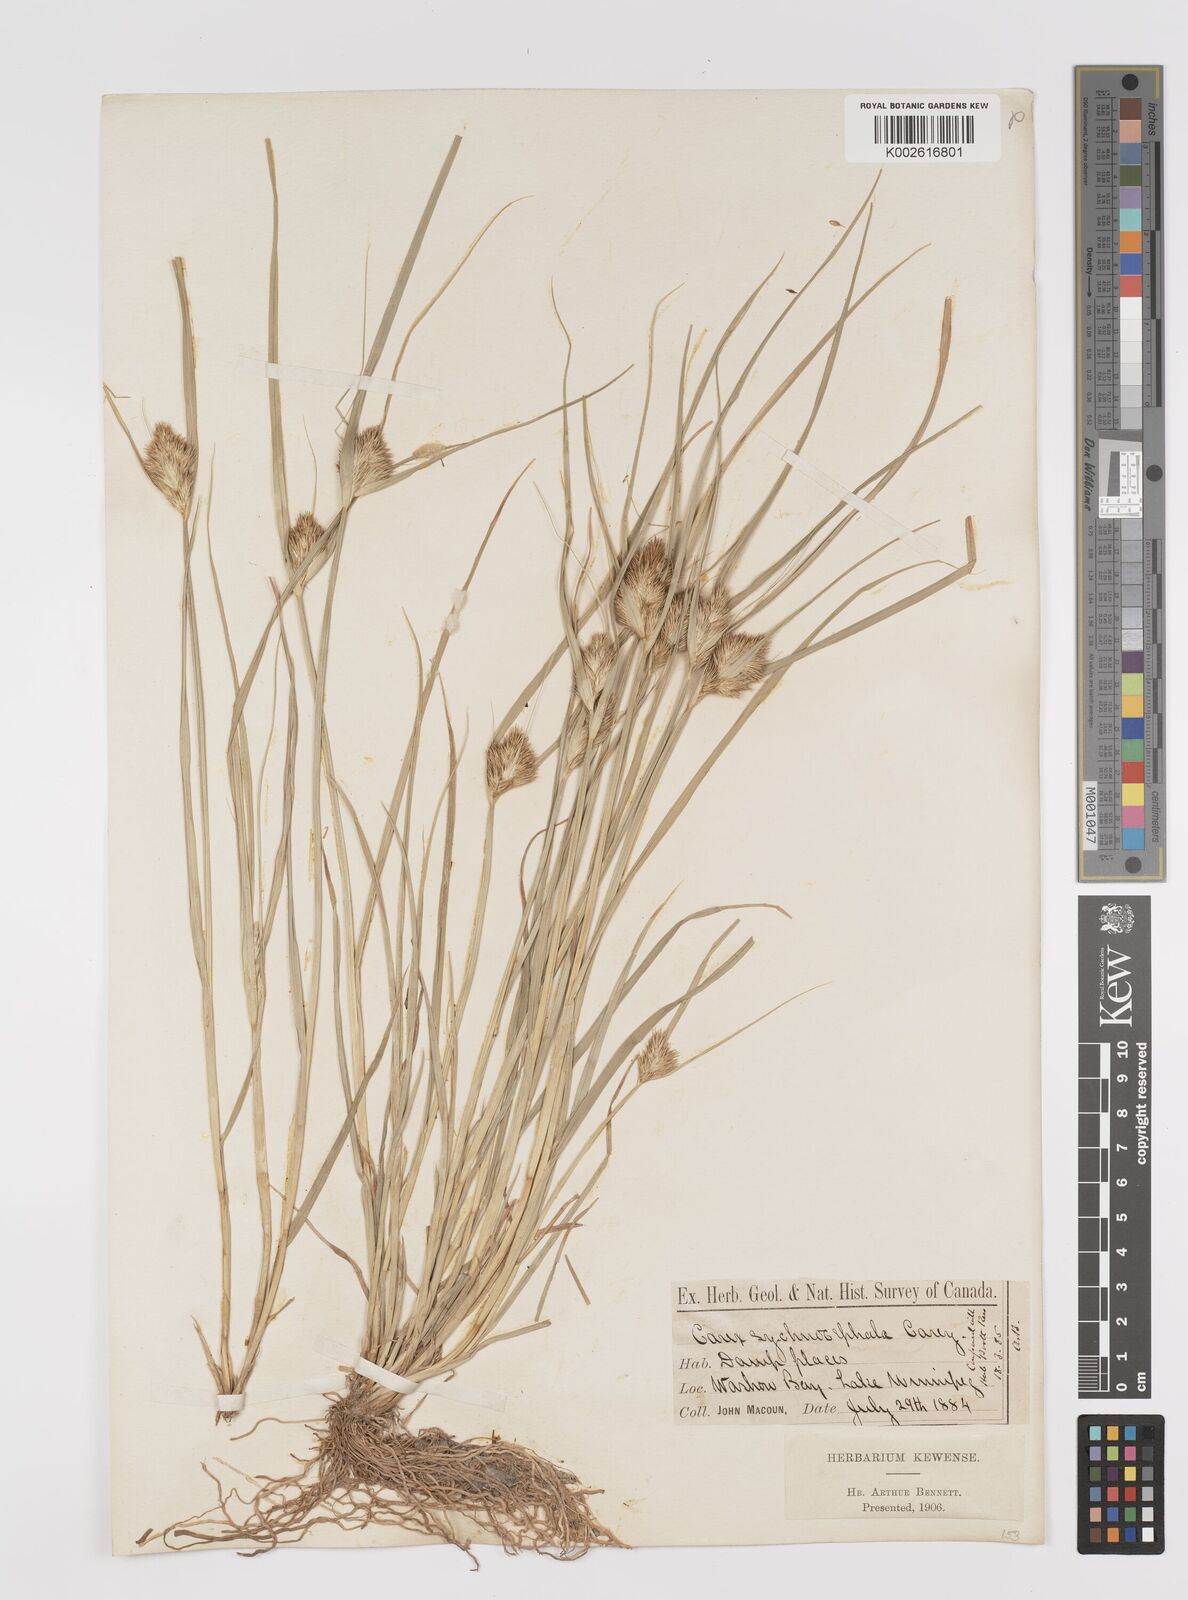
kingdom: Plantae
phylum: Tracheophyta
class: Liliopsida
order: Poales
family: Cyperaceae
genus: Carex
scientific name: Carex sychnocephala
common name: Dense long-beaked sedge
